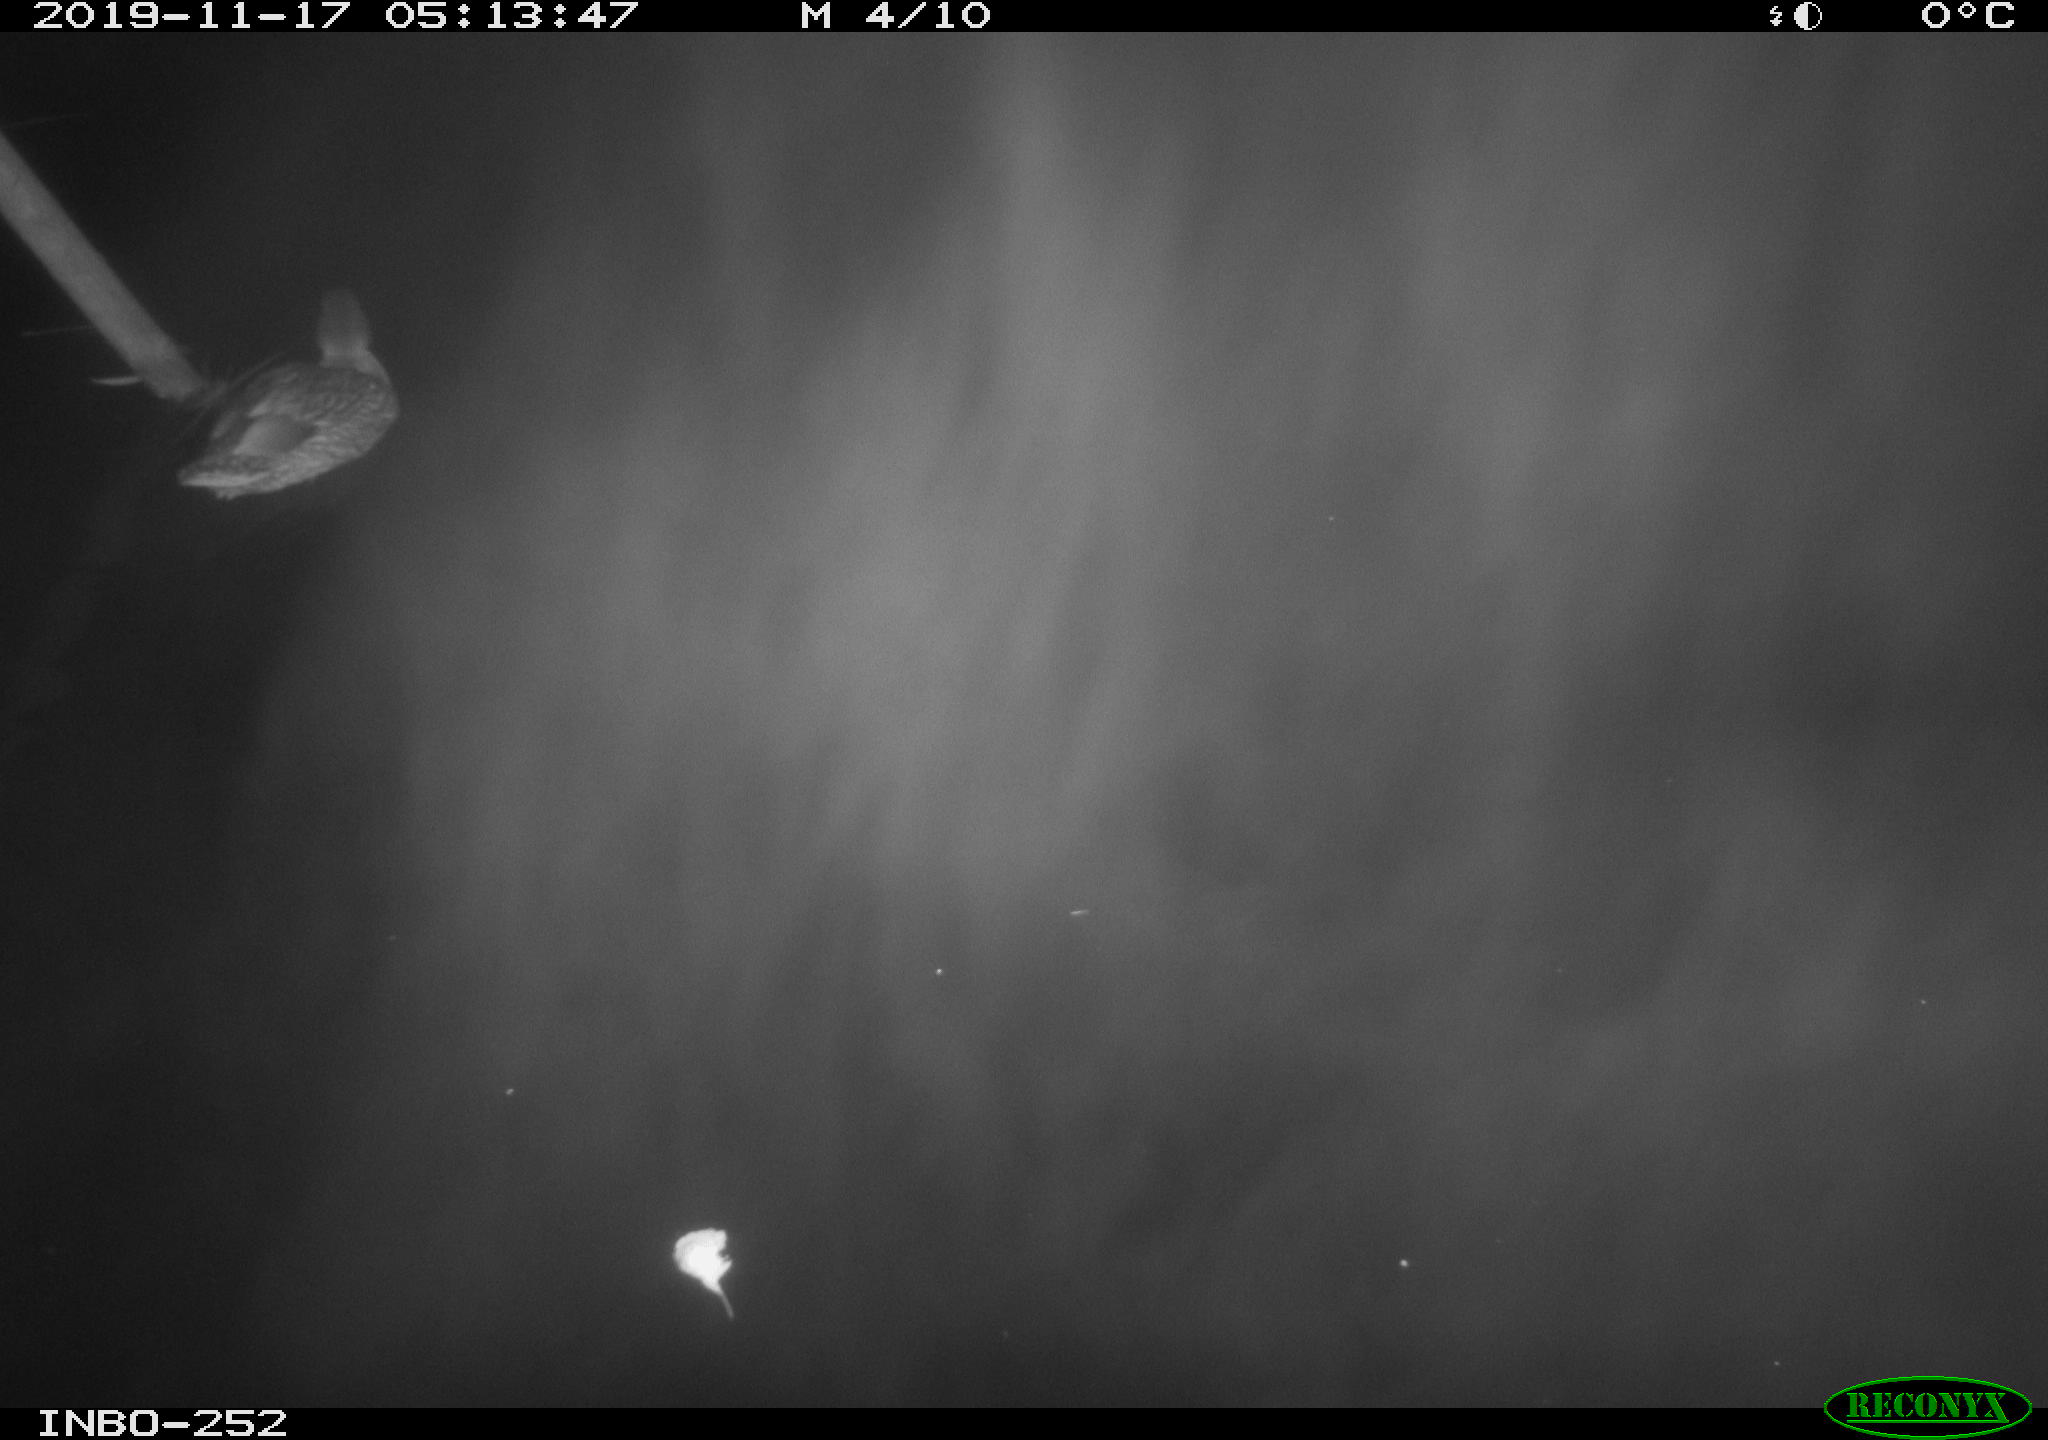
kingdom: Animalia
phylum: Chordata
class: Aves
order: Anseriformes
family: Anatidae
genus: Anas
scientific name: Anas platyrhynchos
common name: Mallard
